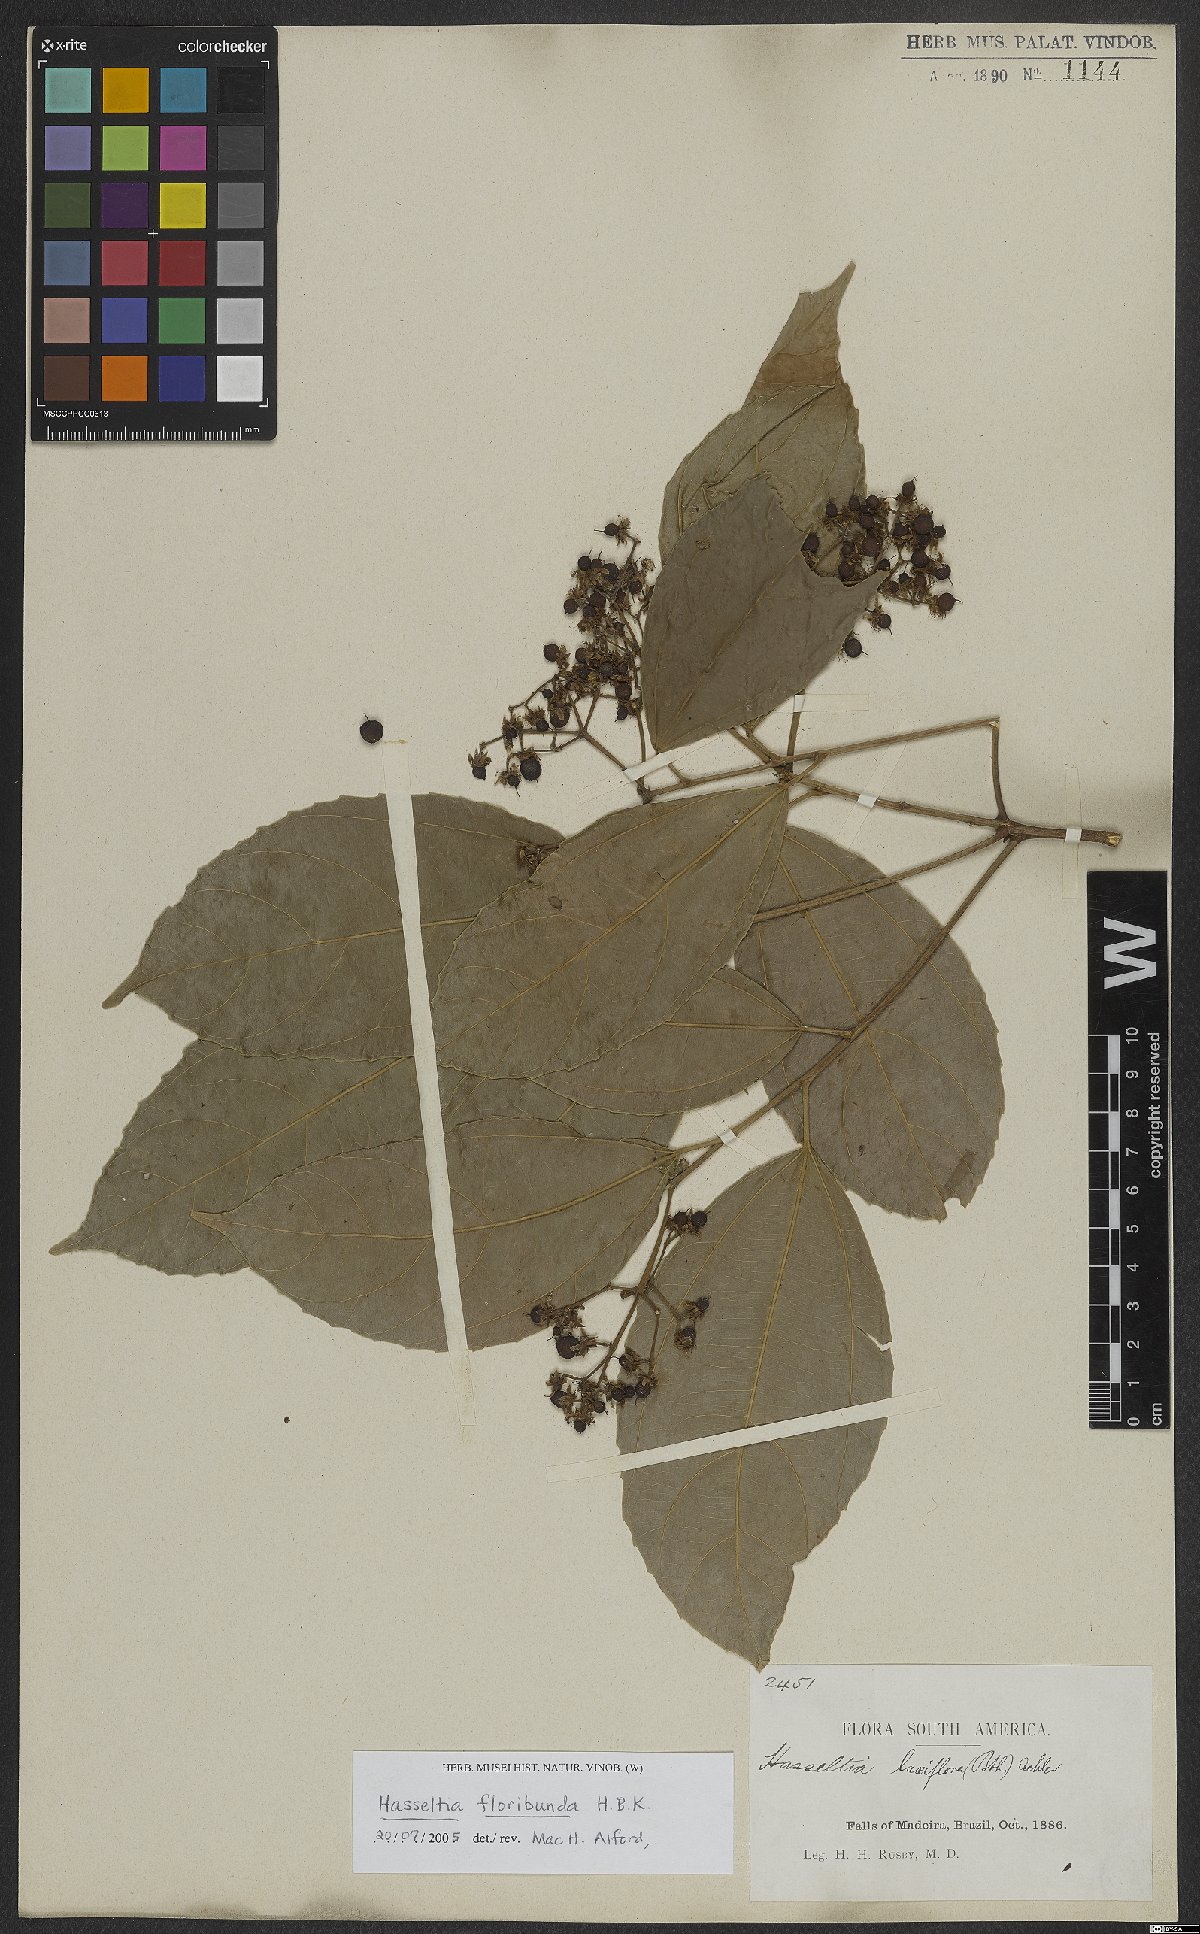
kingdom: Plantae
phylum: Tracheophyta
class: Magnoliopsida
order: Malpighiales
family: Salicaceae
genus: Hasseltia
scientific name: Hasseltia floribunda
